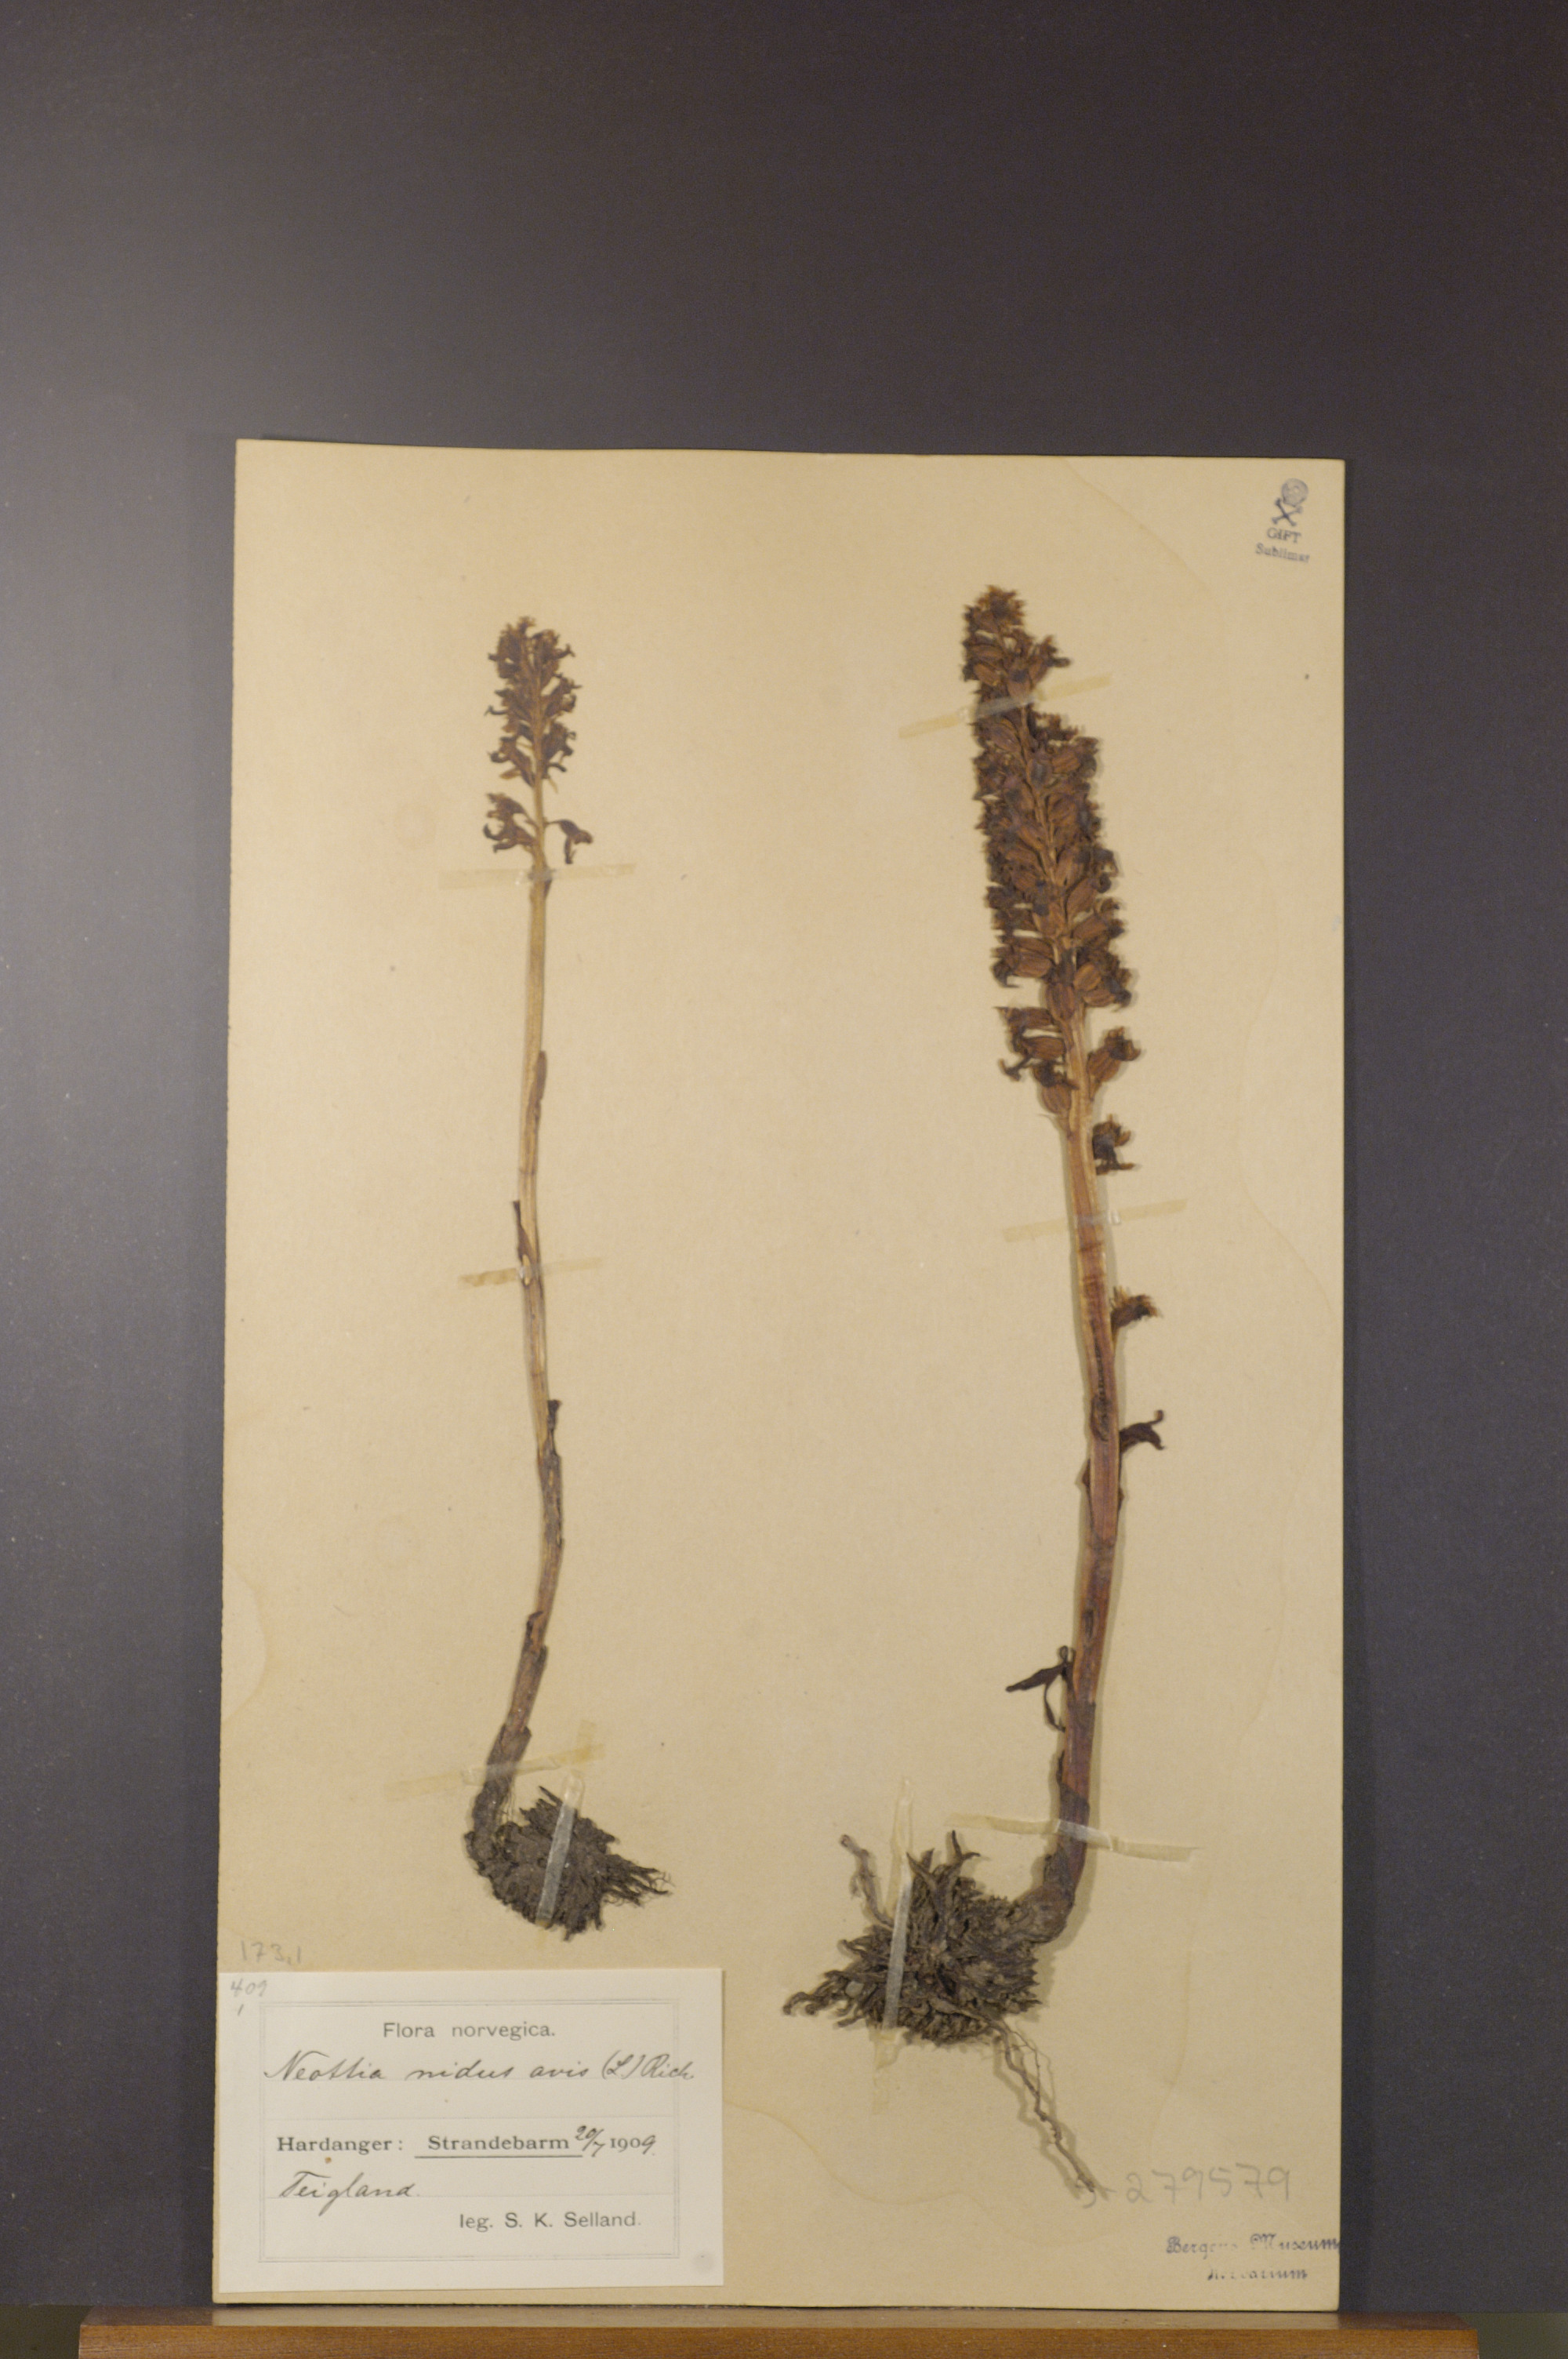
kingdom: Plantae
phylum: Tracheophyta
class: Liliopsida
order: Asparagales
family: Orchidaceae
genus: Neottia
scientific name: Neottia nidus-avis
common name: Bird's-nest orchid
